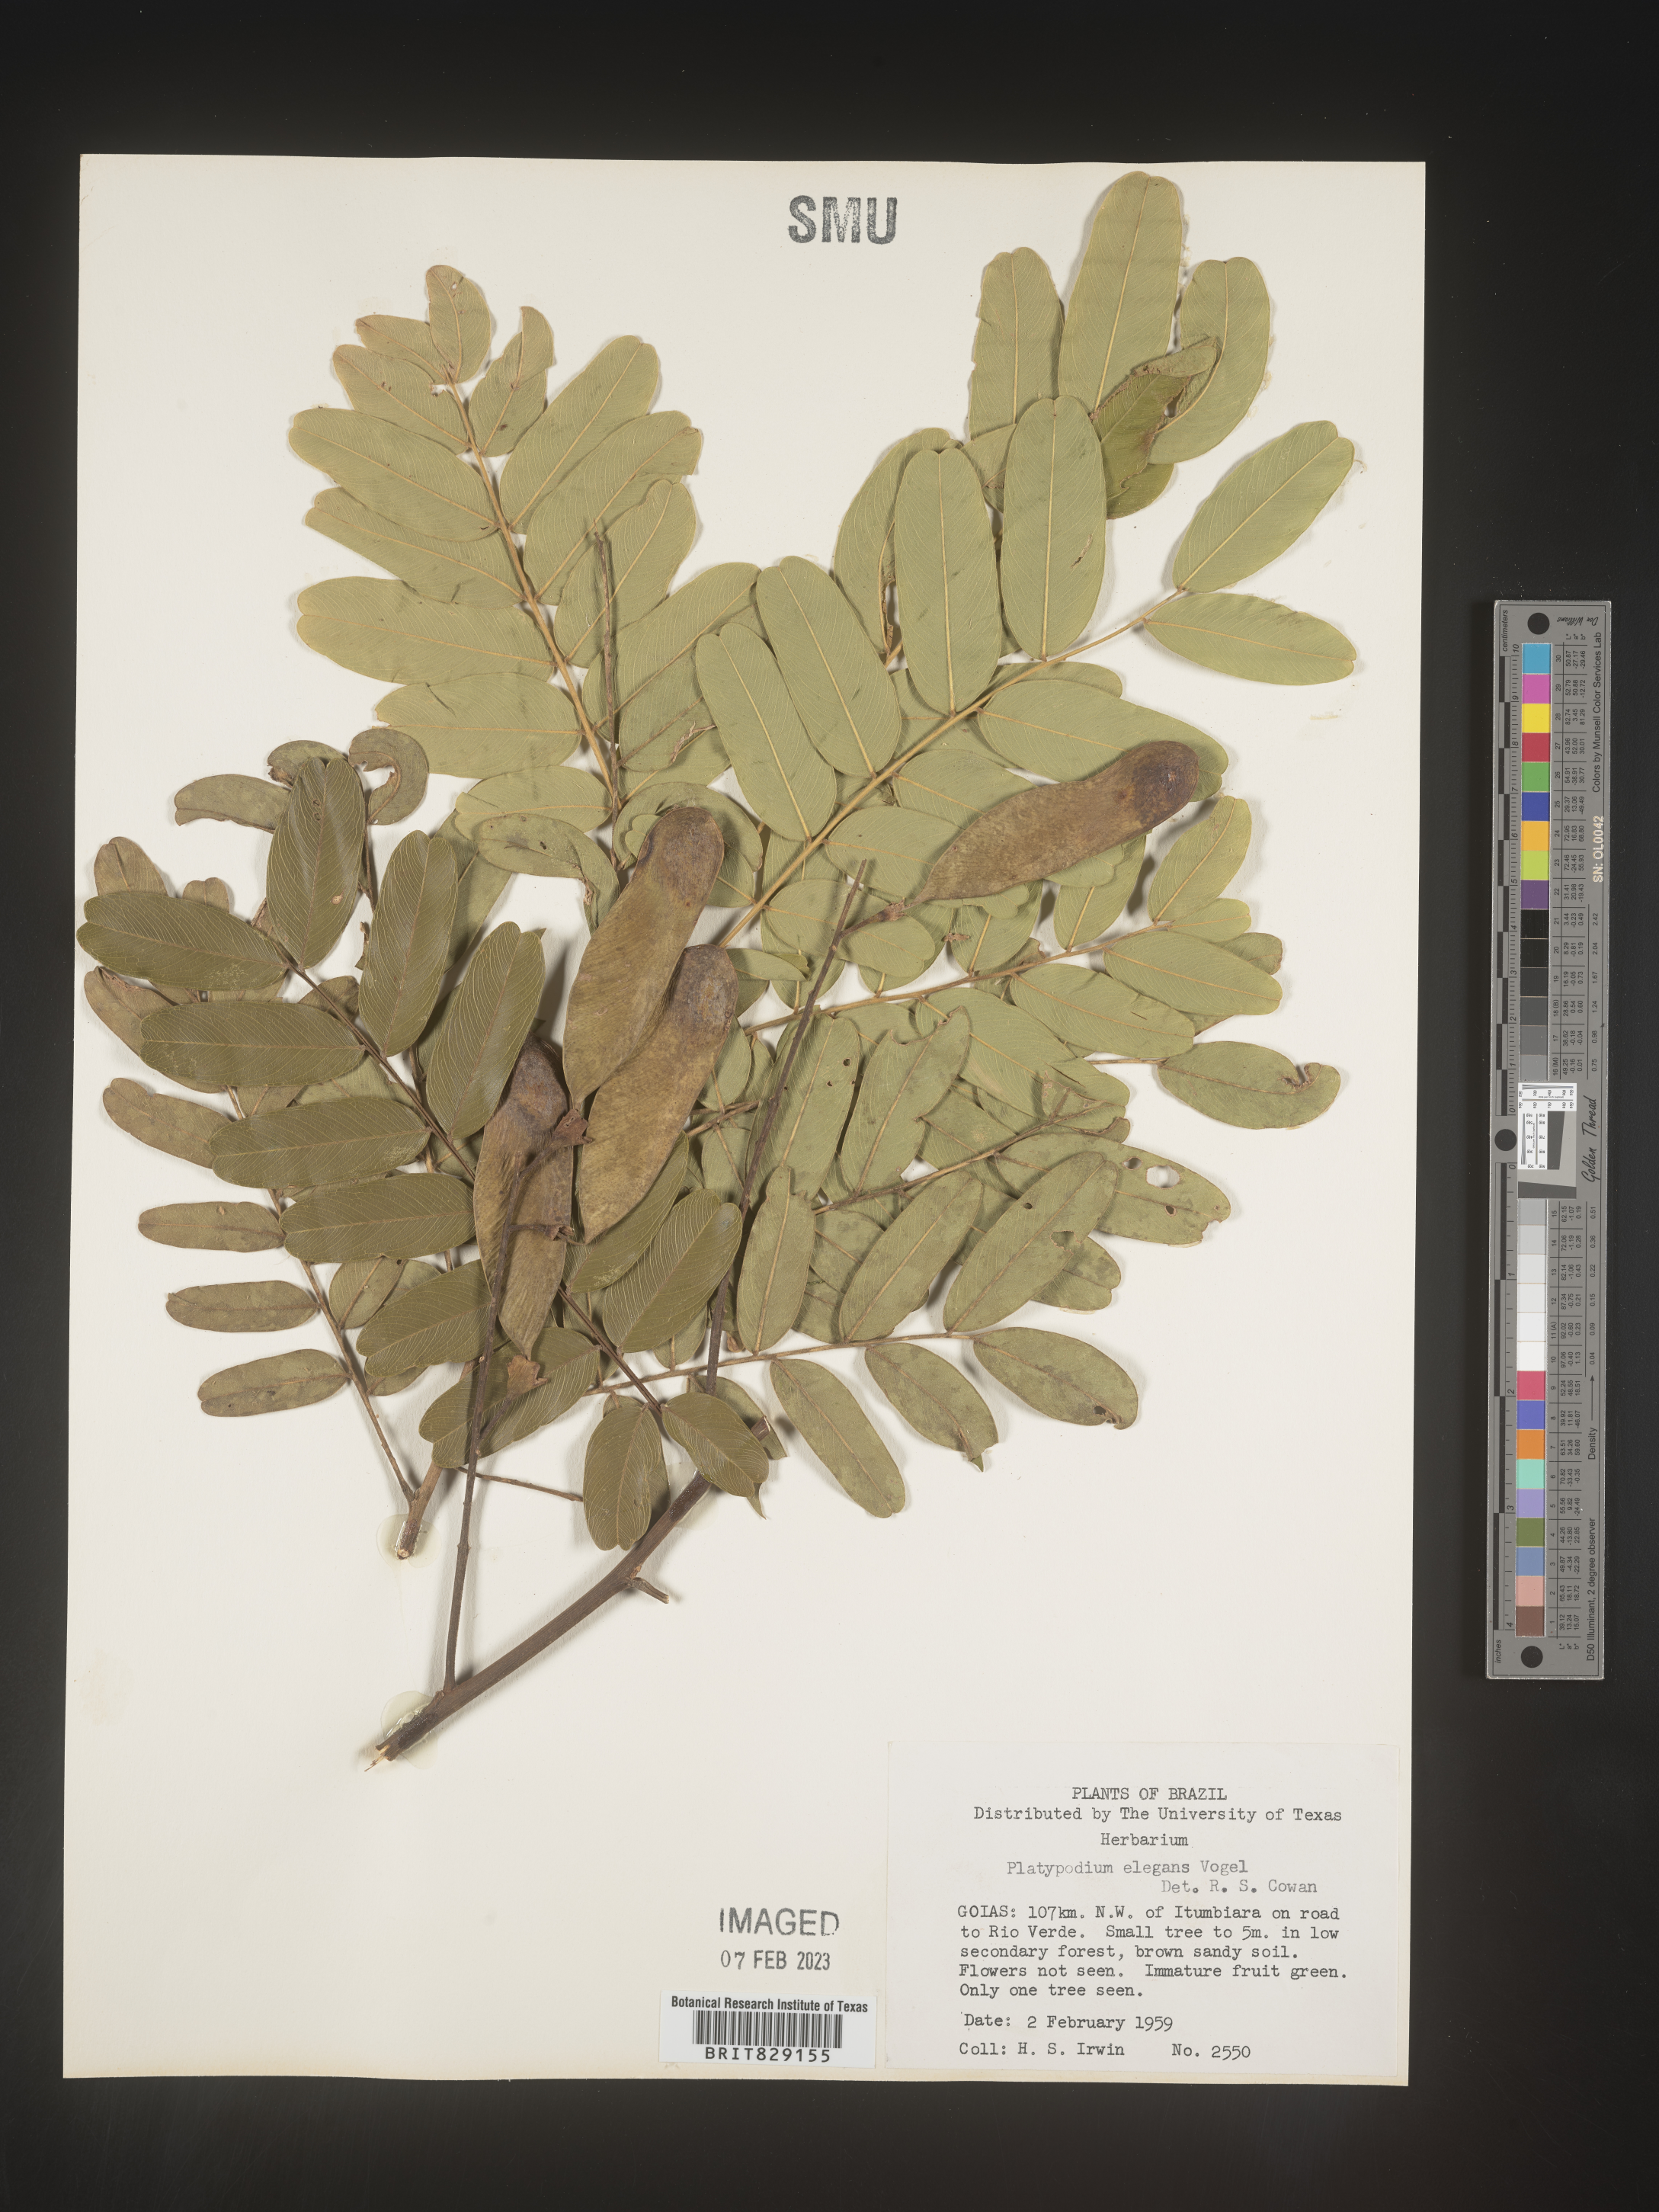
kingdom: Plantae
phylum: Tracheophyta
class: Magnoliopsida
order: Fabales
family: Fabaceae
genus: Platypodium
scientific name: Platypodium
